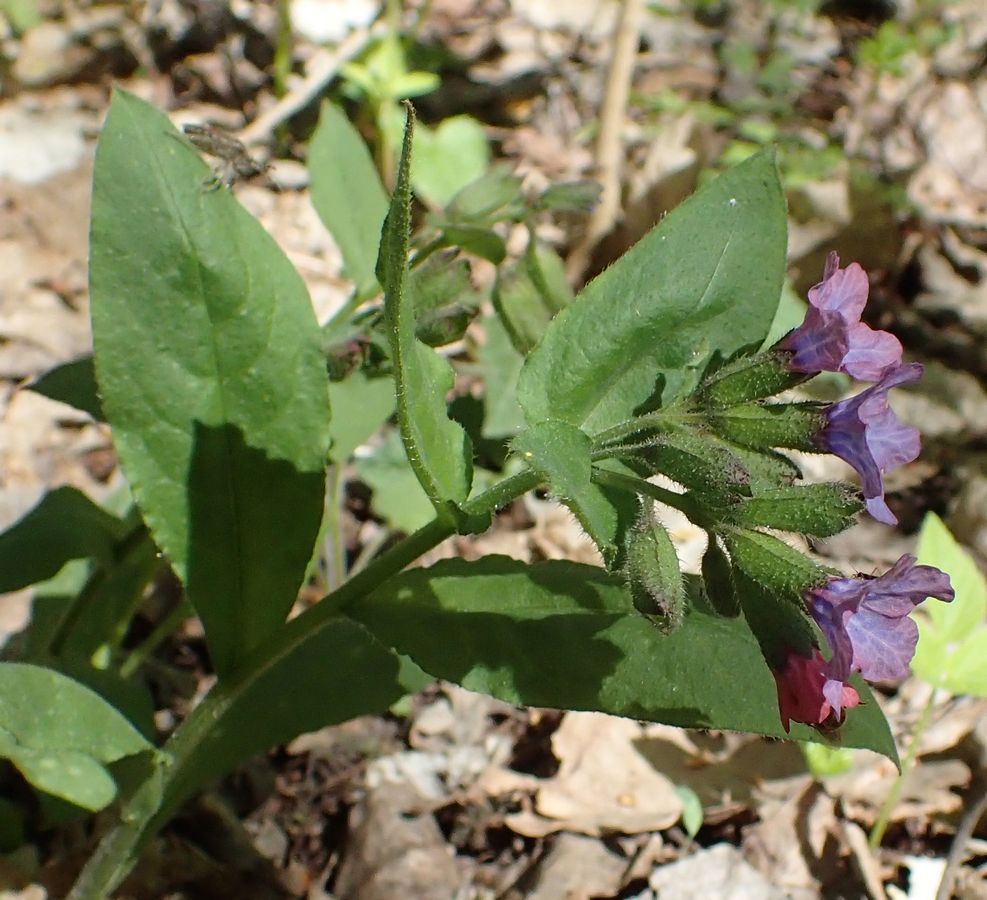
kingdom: Plantae
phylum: Tracheophyta
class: Magnoliopsida
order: Boraginales
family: Boraginaceae
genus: Pulmonaria
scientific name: Pulmonaria obscura
